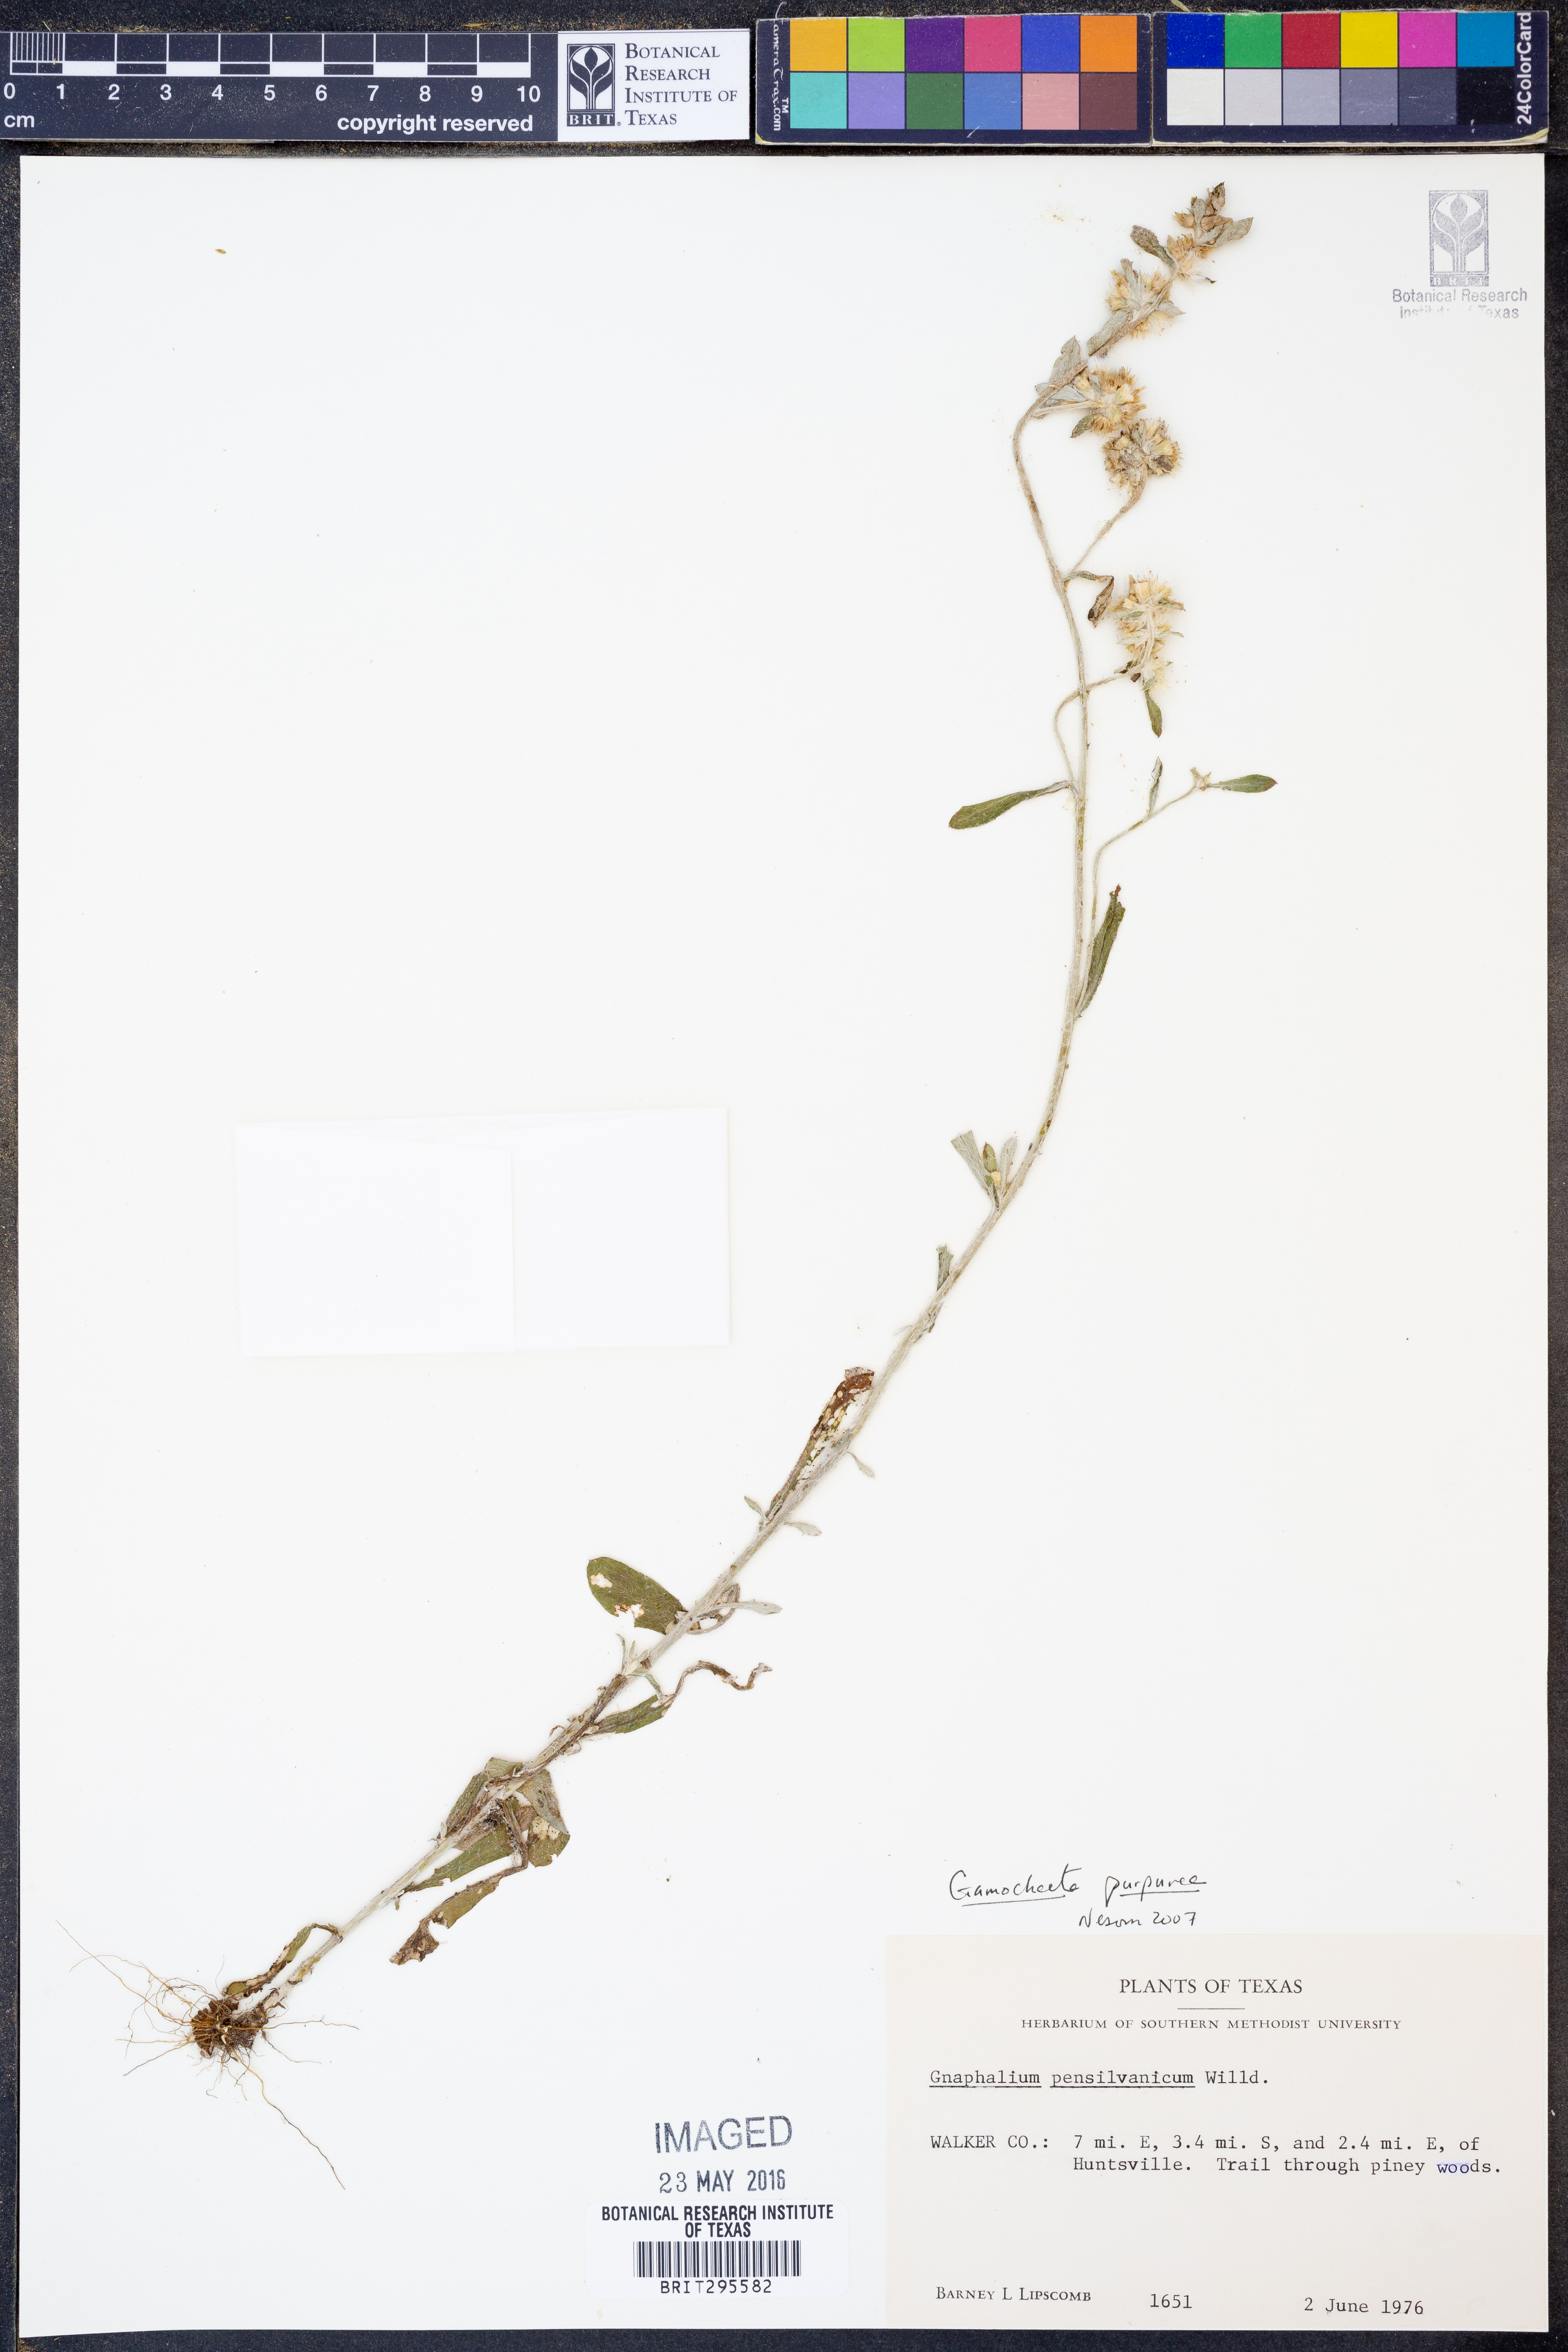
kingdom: Plantae
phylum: Tracheophyta
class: Magnoliopsida
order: Asterales
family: Asteraceae
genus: Gamochaeta
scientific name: Gamochaeta purpurea
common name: Purple cudweed
